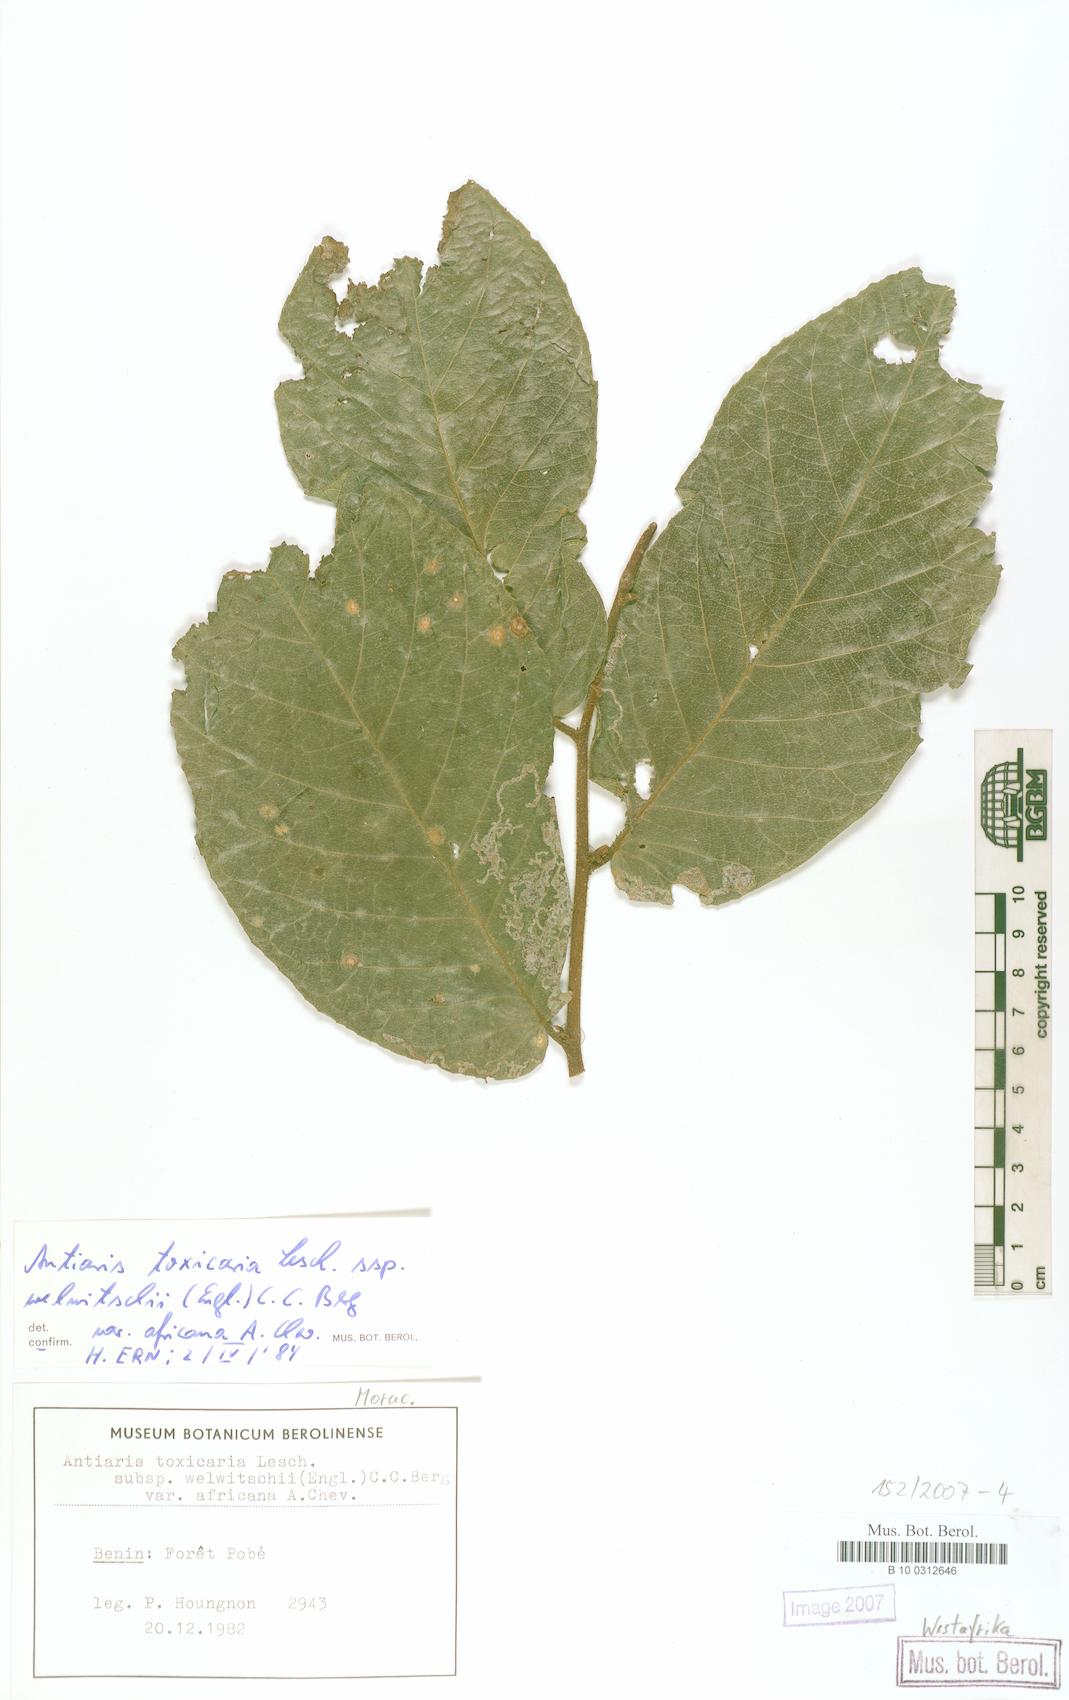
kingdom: Plantae
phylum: Tracheophyta
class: Magnoliopsida
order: Rosales
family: Moraceae
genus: Antiaris
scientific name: Antiaris toxicaria
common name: Sackingtree
